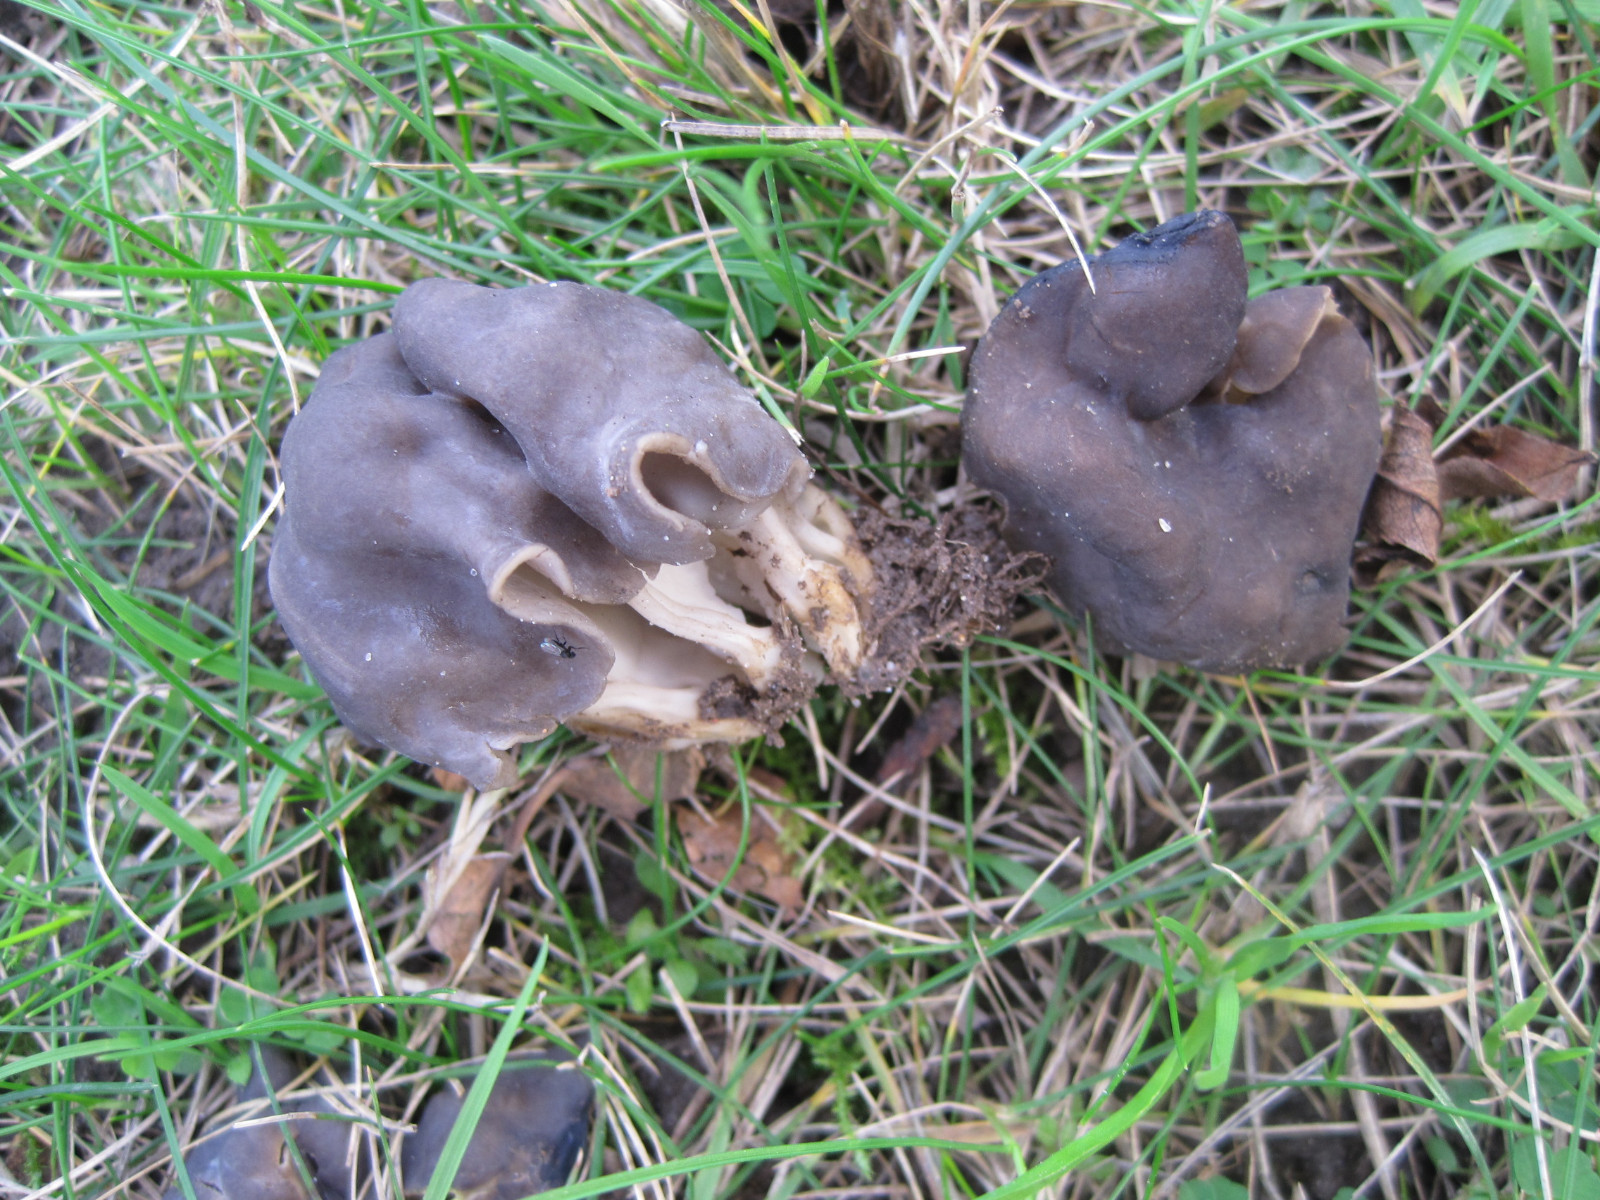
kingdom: Fungi
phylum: Ascomycota
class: Pezizomycetes
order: Pezizales
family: Helvellaceae
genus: Helvella
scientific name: Helvella lacunosa
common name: grubet foldhat
